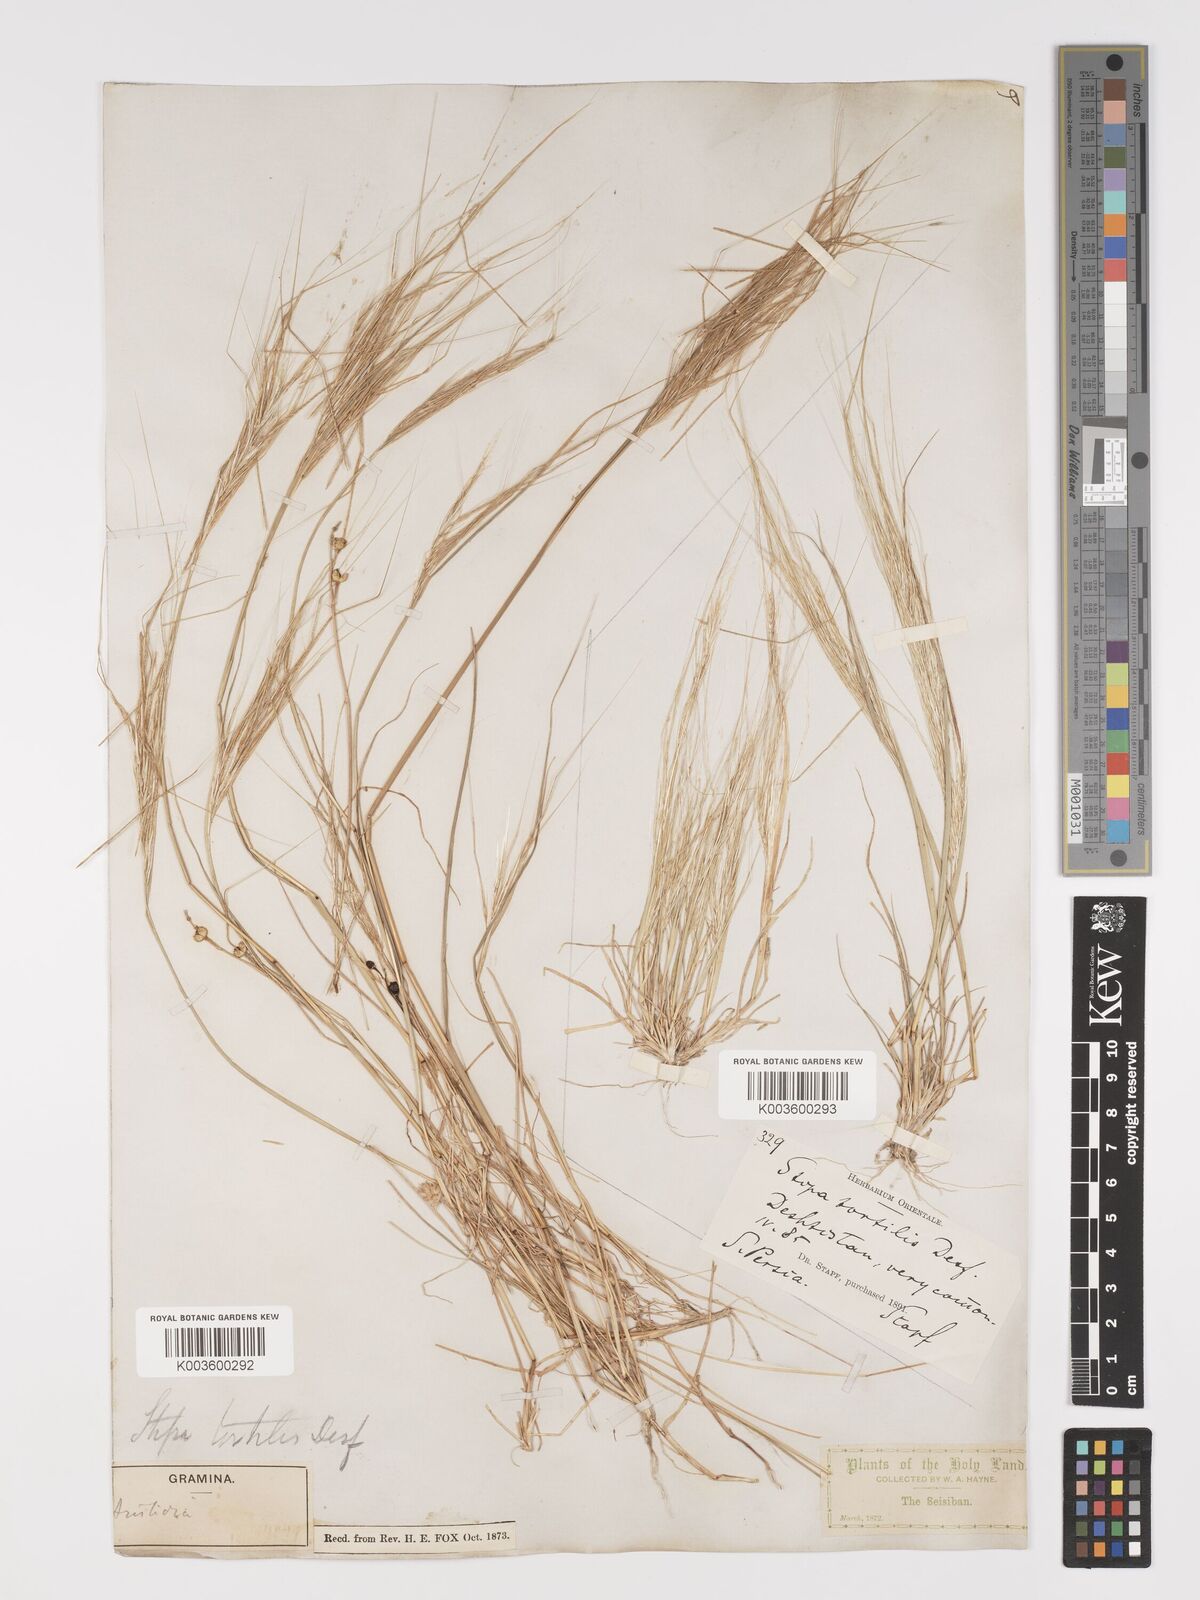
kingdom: Plantae
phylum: Tracheophyta
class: Liliopsida
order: Poales
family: Poaceae
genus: Stipellula
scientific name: Stipellula capensis
